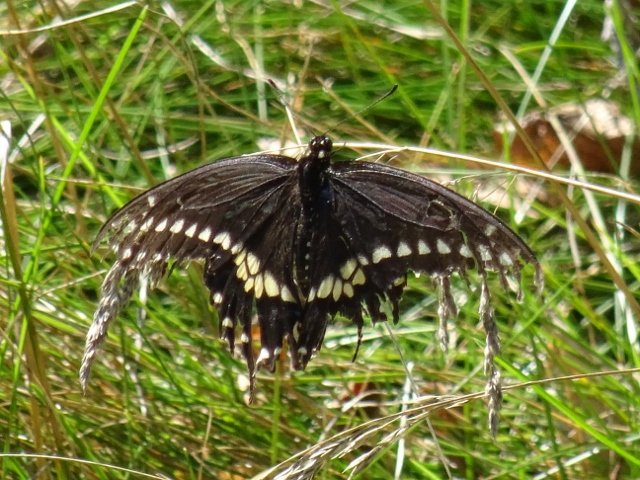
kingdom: Animalia
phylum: Arthropoda
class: Insecta
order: Lepidoptera
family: Papilionidae
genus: Papilio
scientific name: Papilio polyxenes
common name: Black Swallowtail
